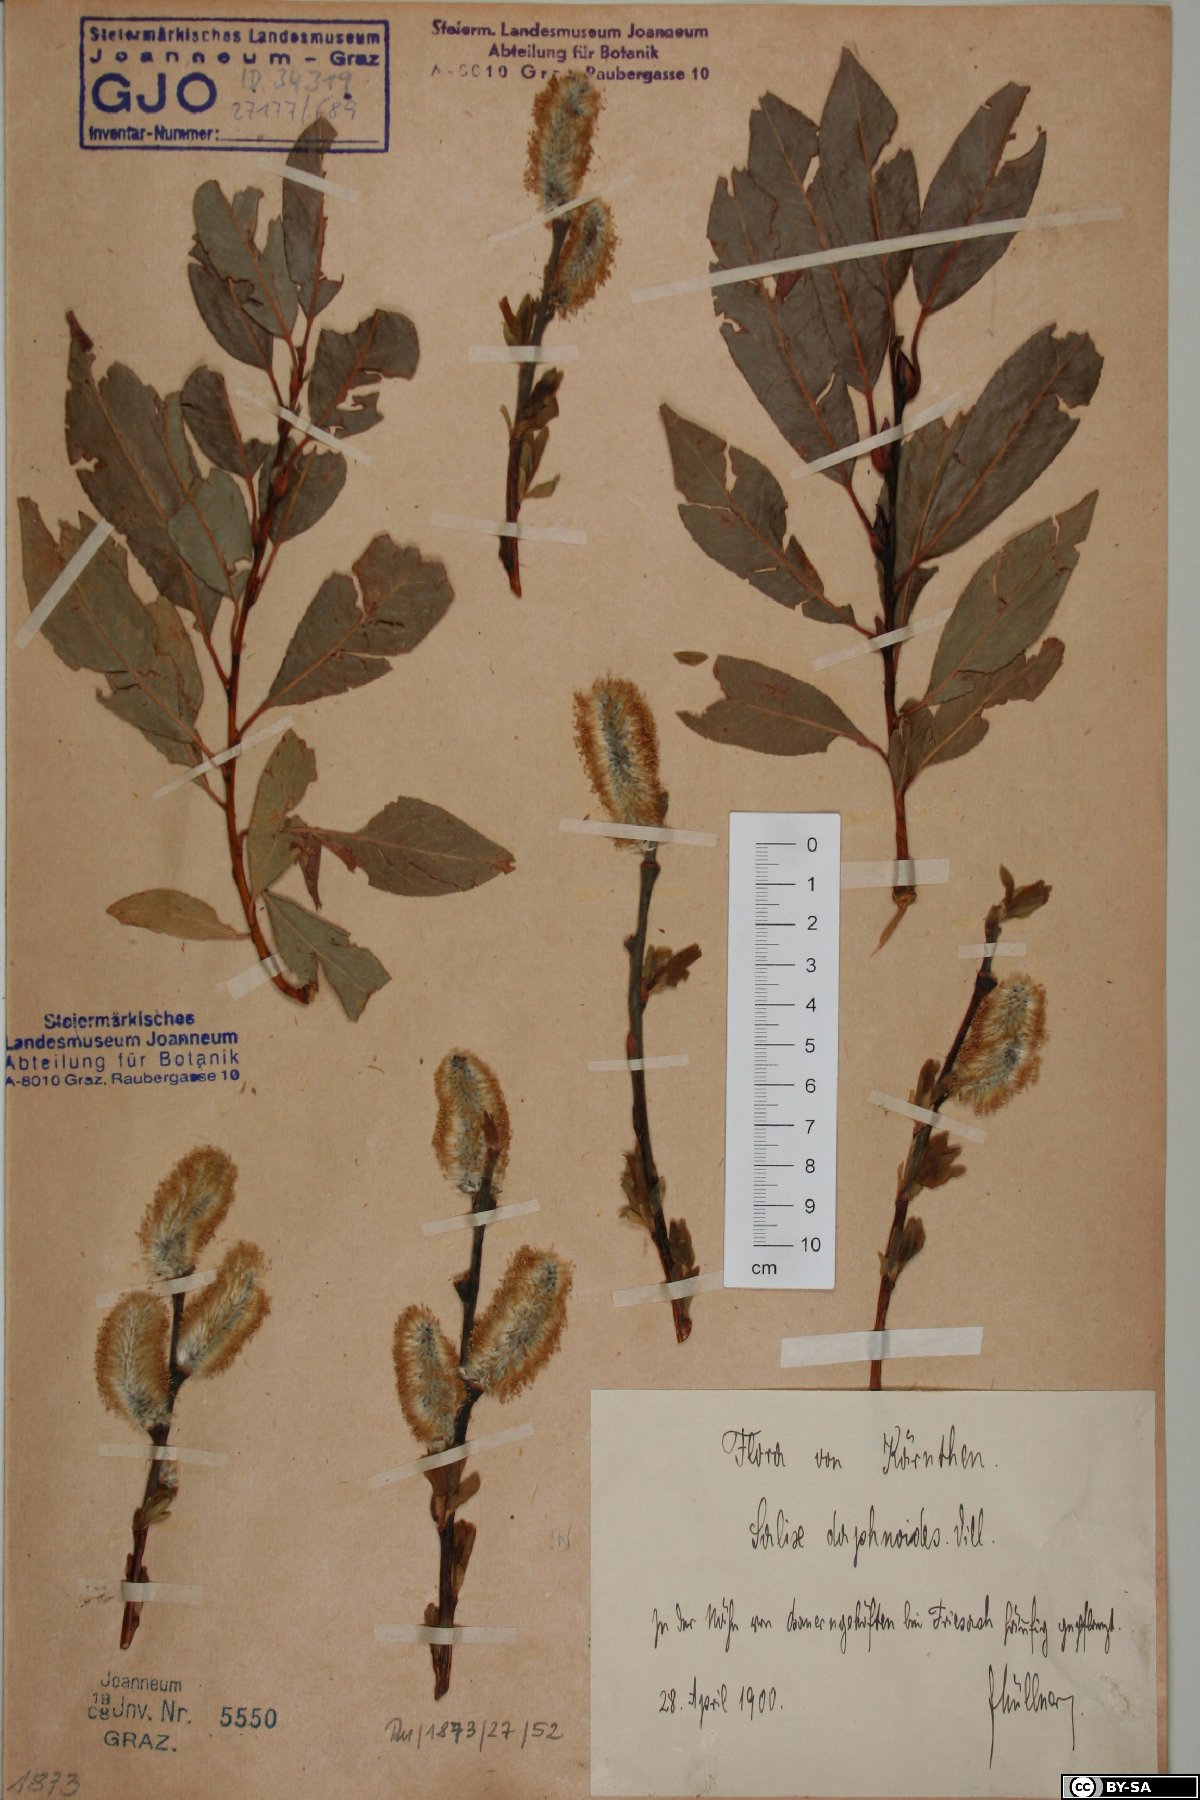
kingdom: Plantae
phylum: Tracheophyta
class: Magnoliopsida
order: Malpighiales
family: Salicaceae
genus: Salix
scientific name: Salix daphnoides
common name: European violet-willow
